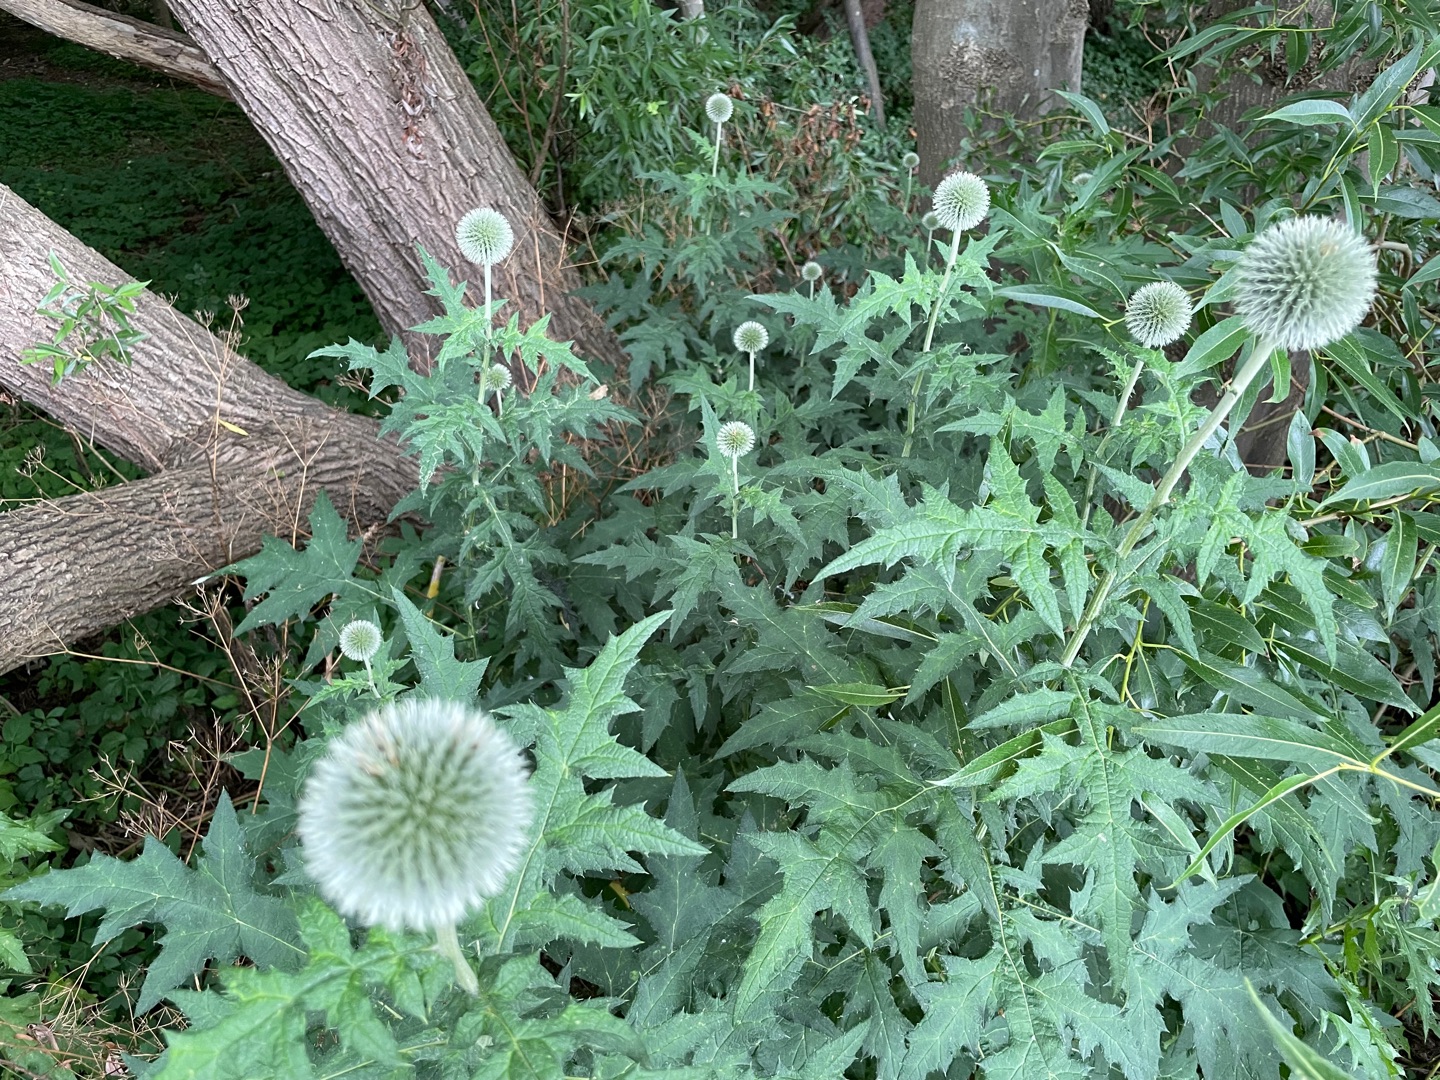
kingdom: Plantae
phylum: Tracheophyta
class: Magnoliopsida
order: Asterales
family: Asteraceae
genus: Echinops
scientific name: Echinops exaltatus
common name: Høj tidselkugle
